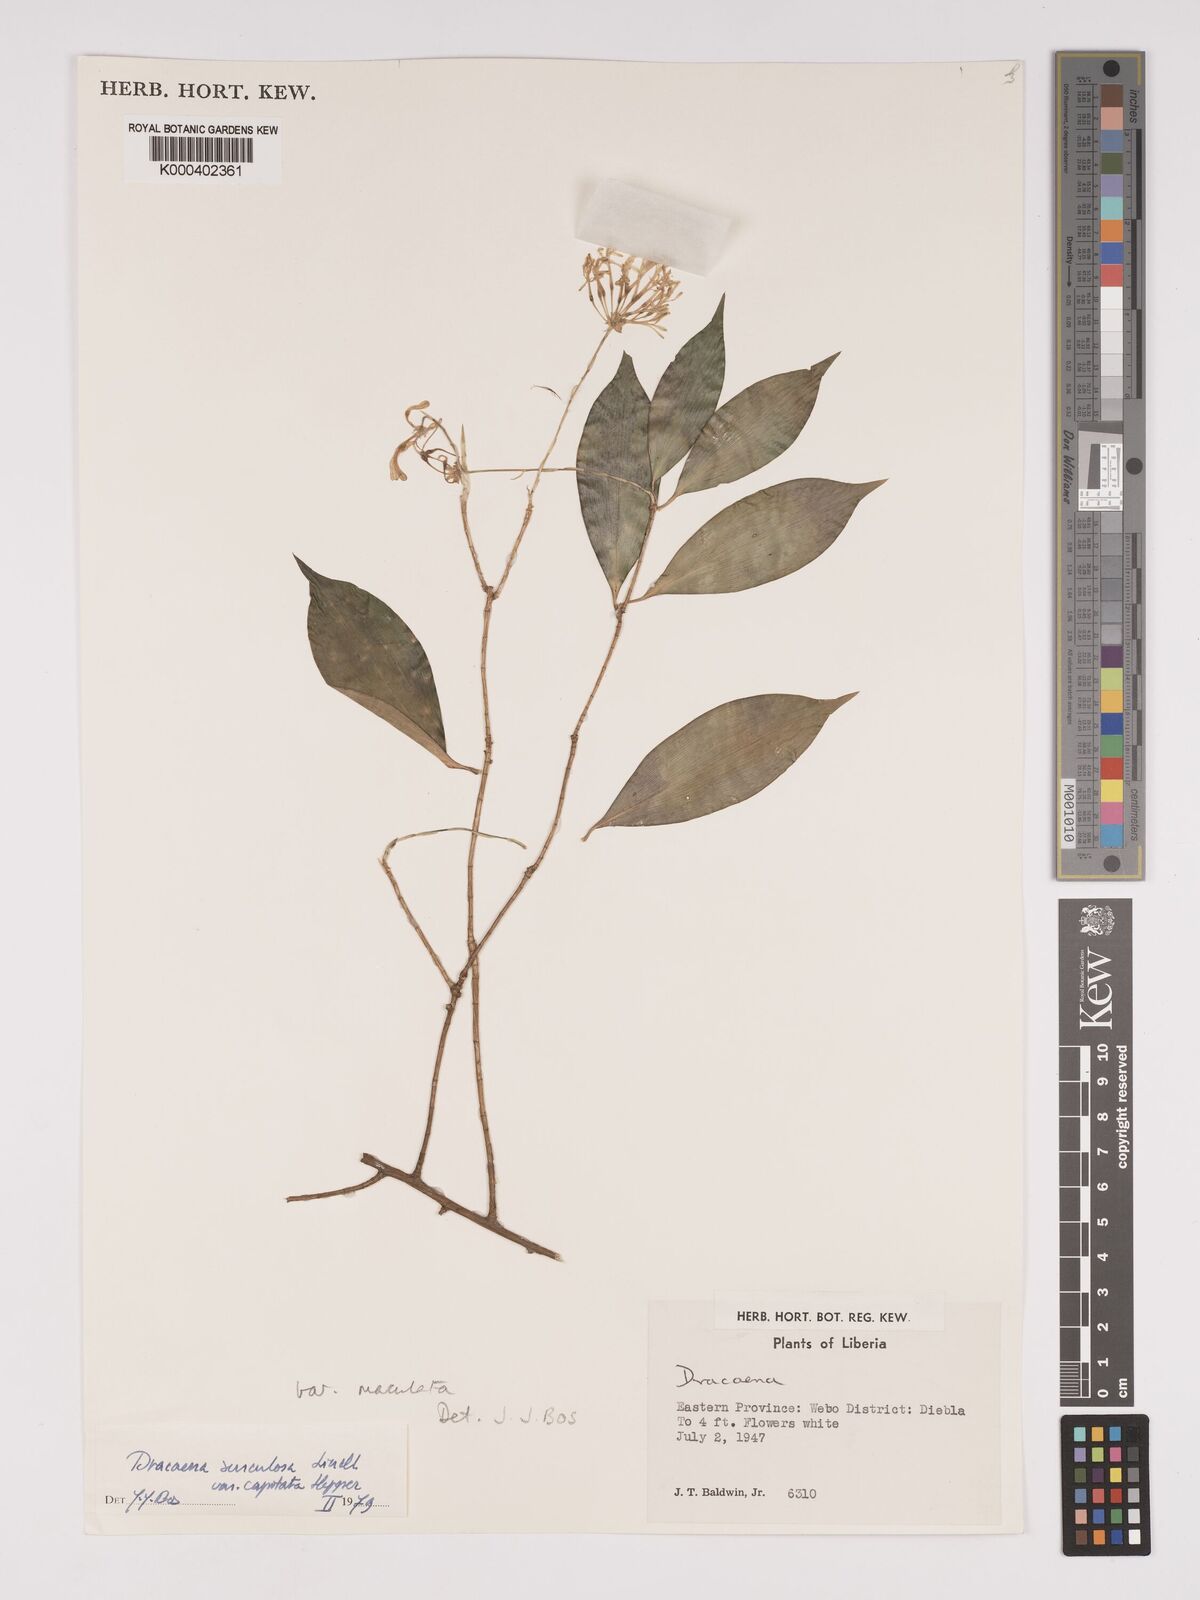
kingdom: Plantae
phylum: Tracheophyta
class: Liliopsida
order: Asparagales
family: Asparagaceae
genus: Dracaena
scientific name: Dracaena surculosa
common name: Spotted dracaena
